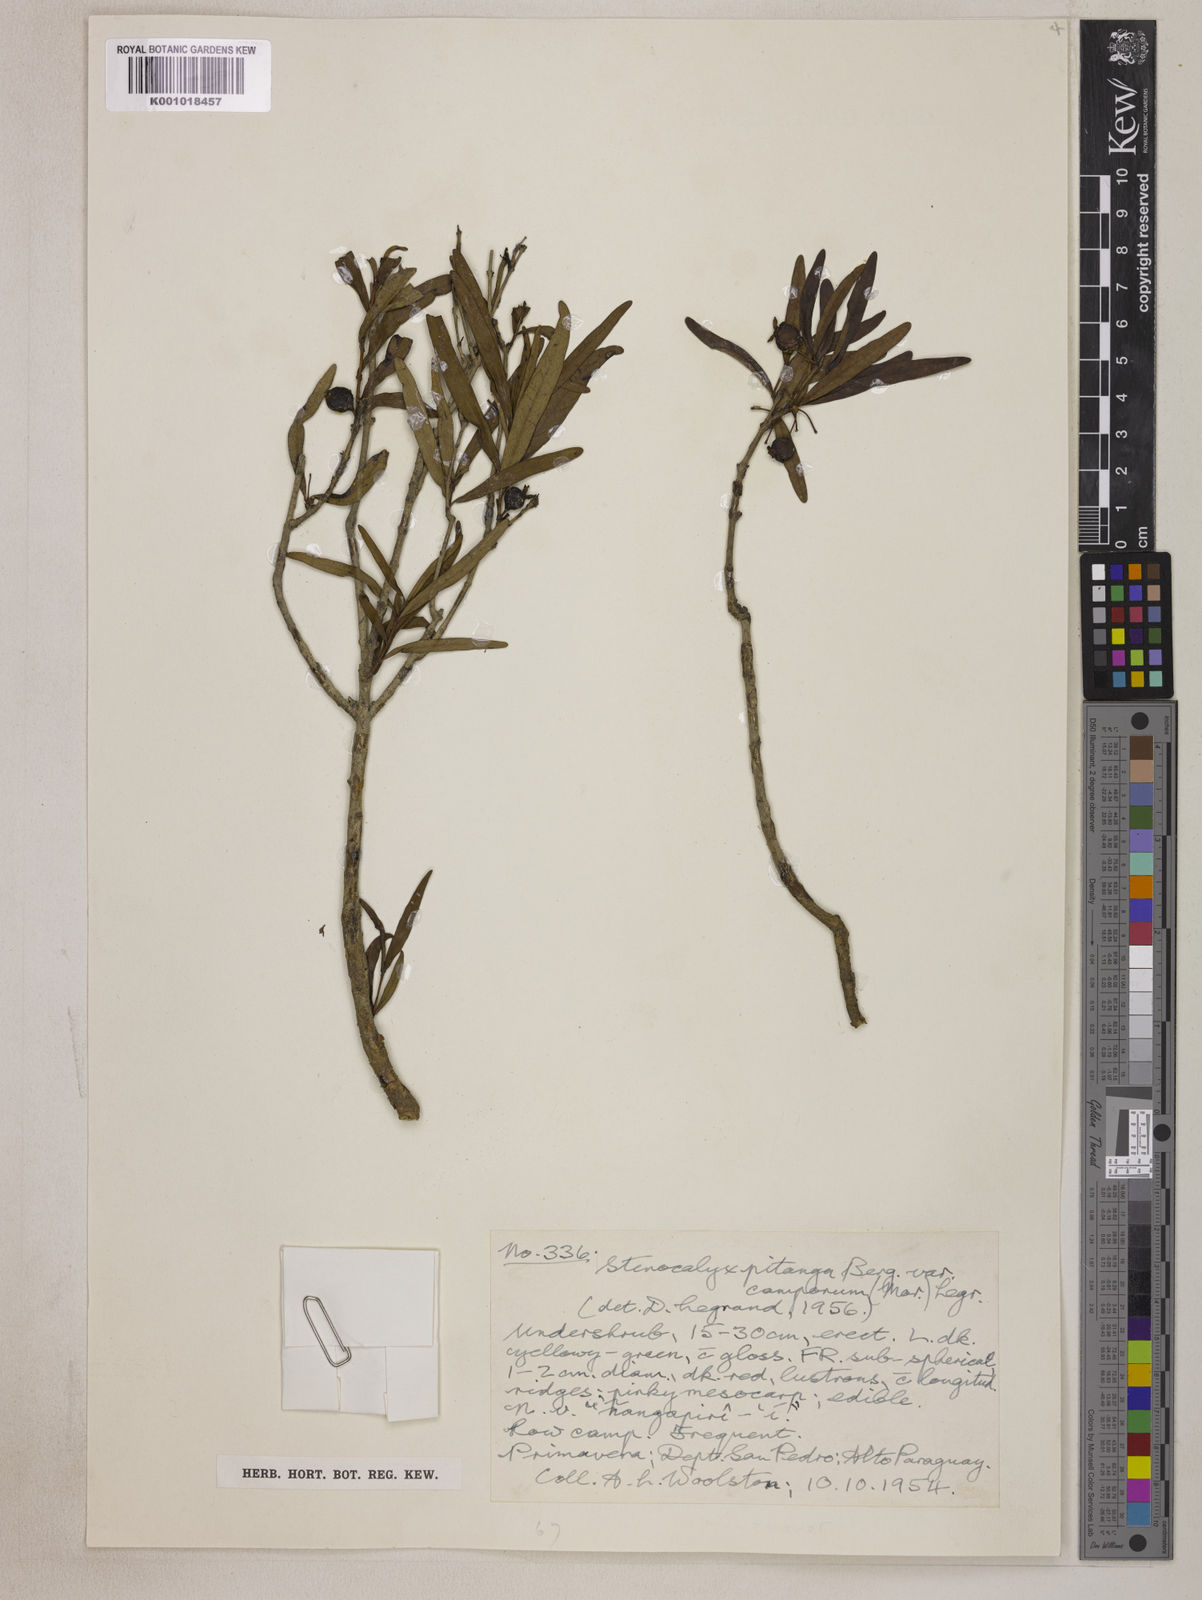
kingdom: Plantae
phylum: Tracheophyta
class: Magnoliopsida
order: Myrtales
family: Myrtaceae
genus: Eugenia
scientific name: Eugenia
